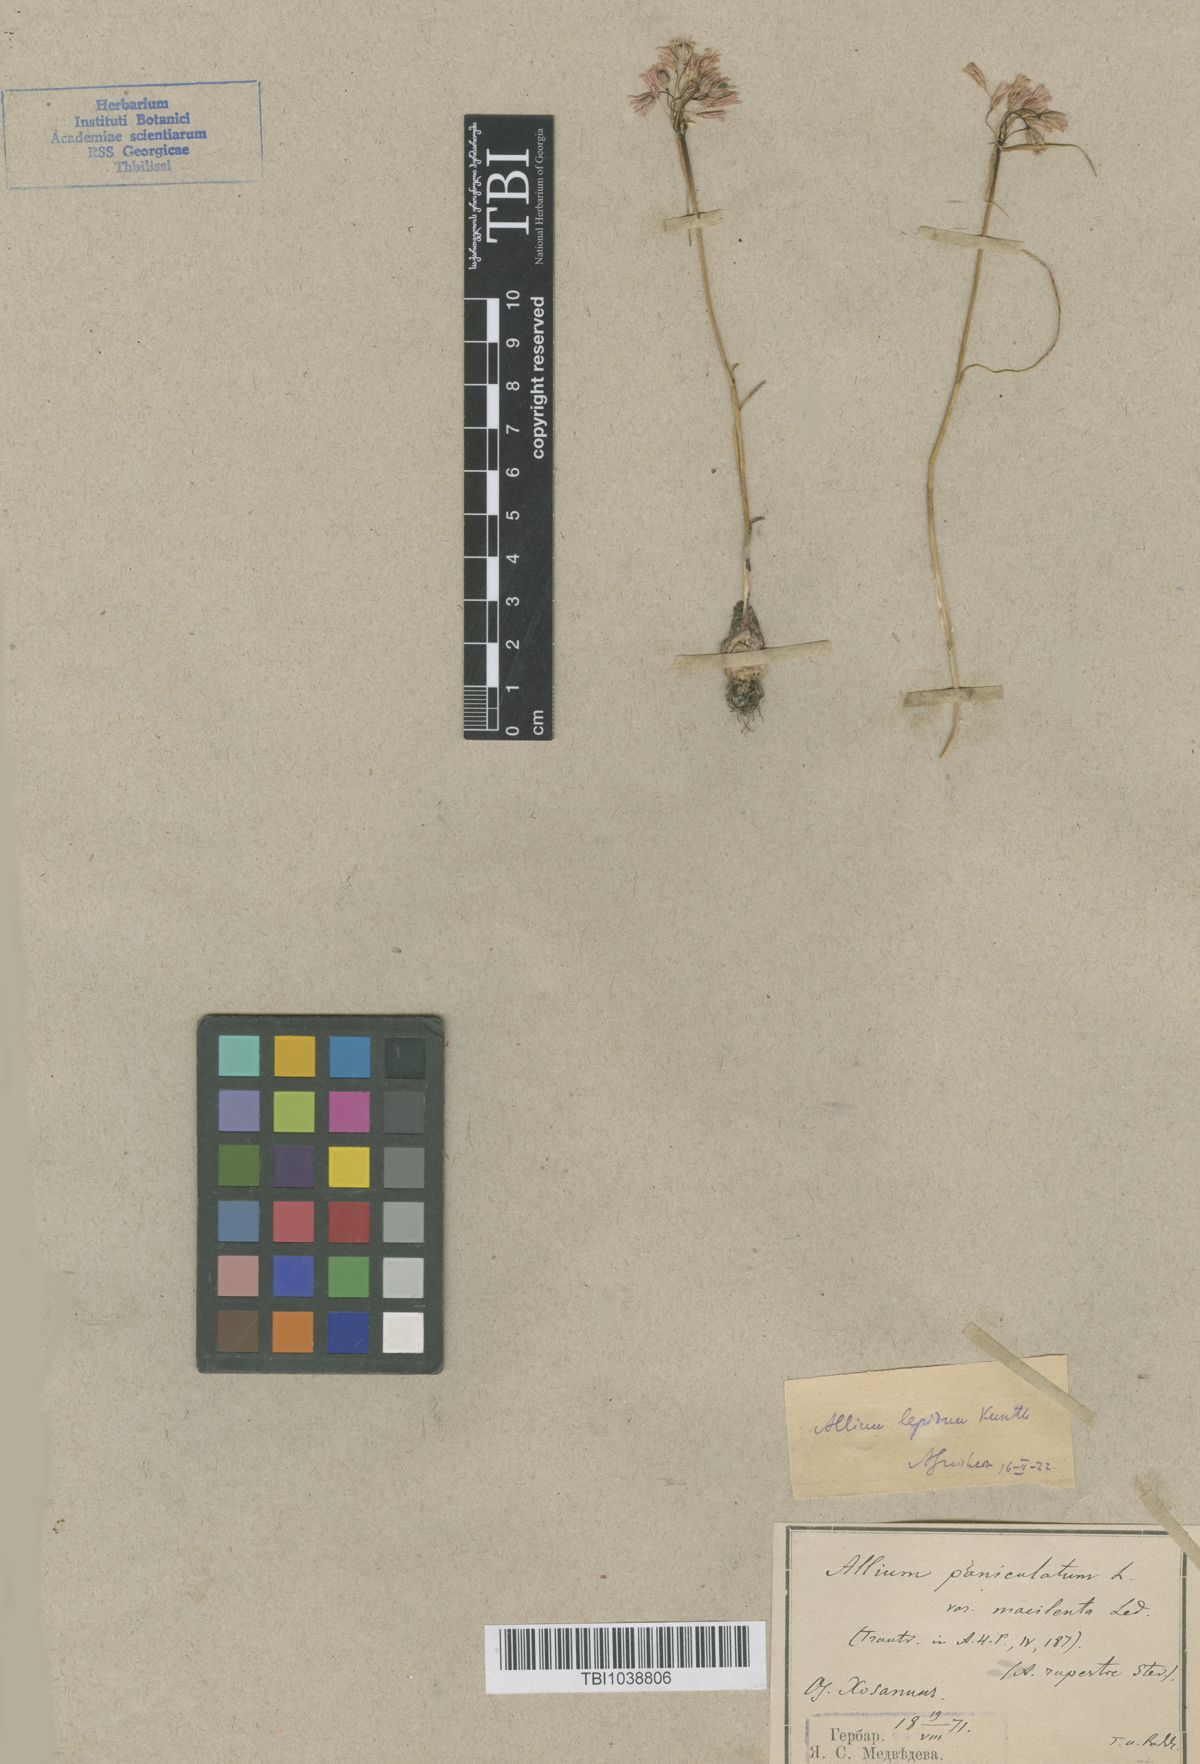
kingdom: Plantae
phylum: Tracheophyta
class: Liliopsida
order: Asparagales
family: Amaryllidaceae
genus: Allium
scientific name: Allium kunthianum
